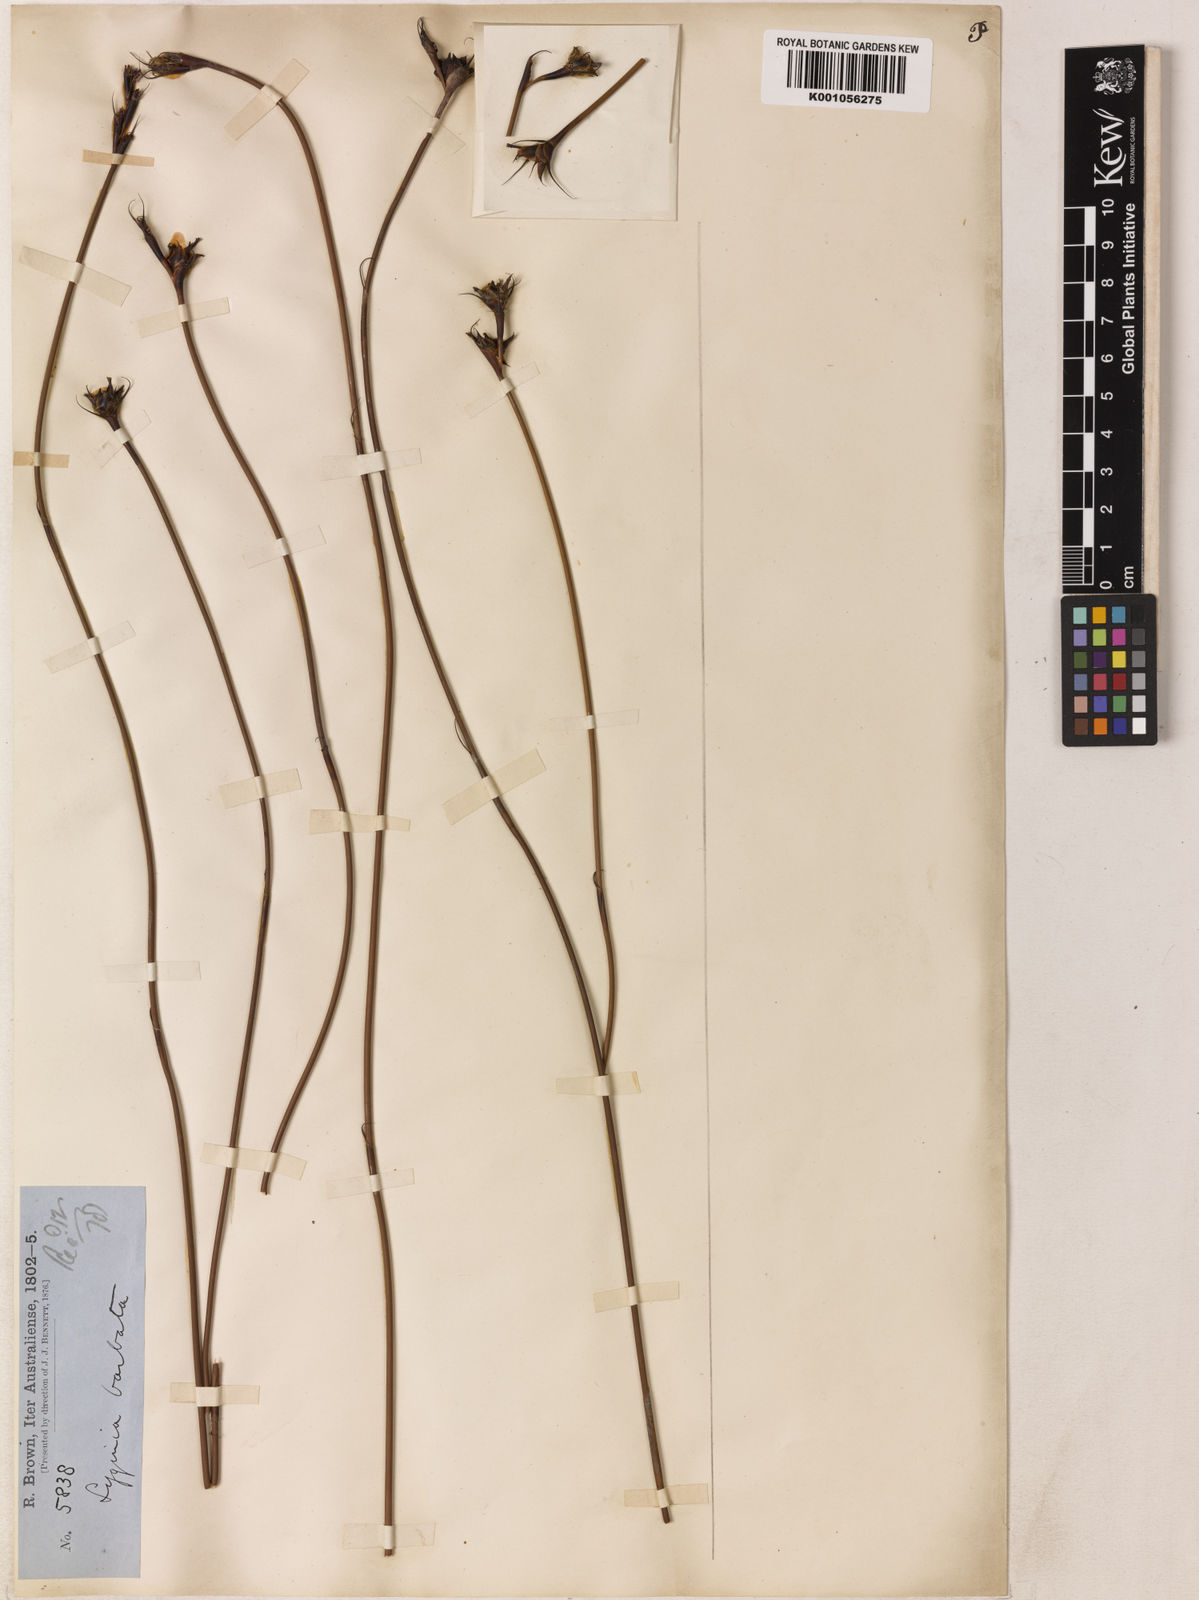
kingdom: Plantae
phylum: Tracheophyta
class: Liliopsida
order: Poales
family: Restionaceae
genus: Lyginia
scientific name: Lyginia barbata
